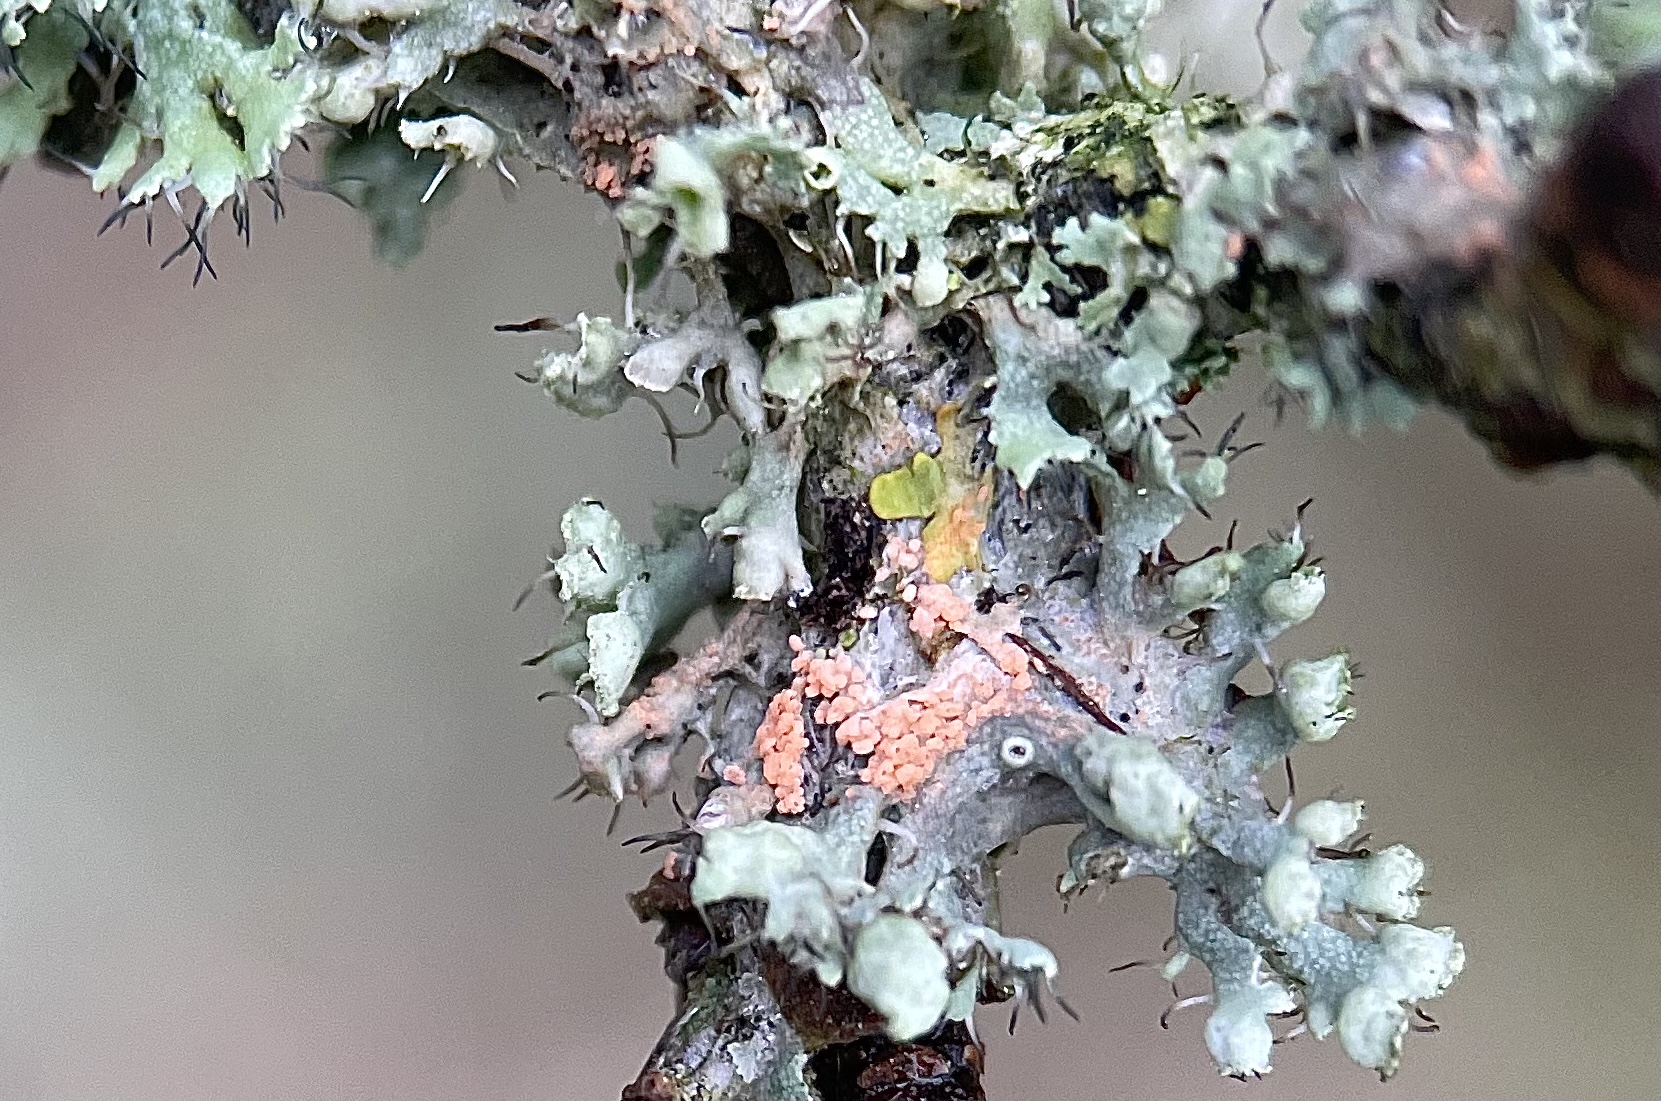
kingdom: Fungi
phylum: Ascomycota
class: Sordariomycetes
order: Hypocreales
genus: Illosporiopsis
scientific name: Illosporiopsis christiansenii
